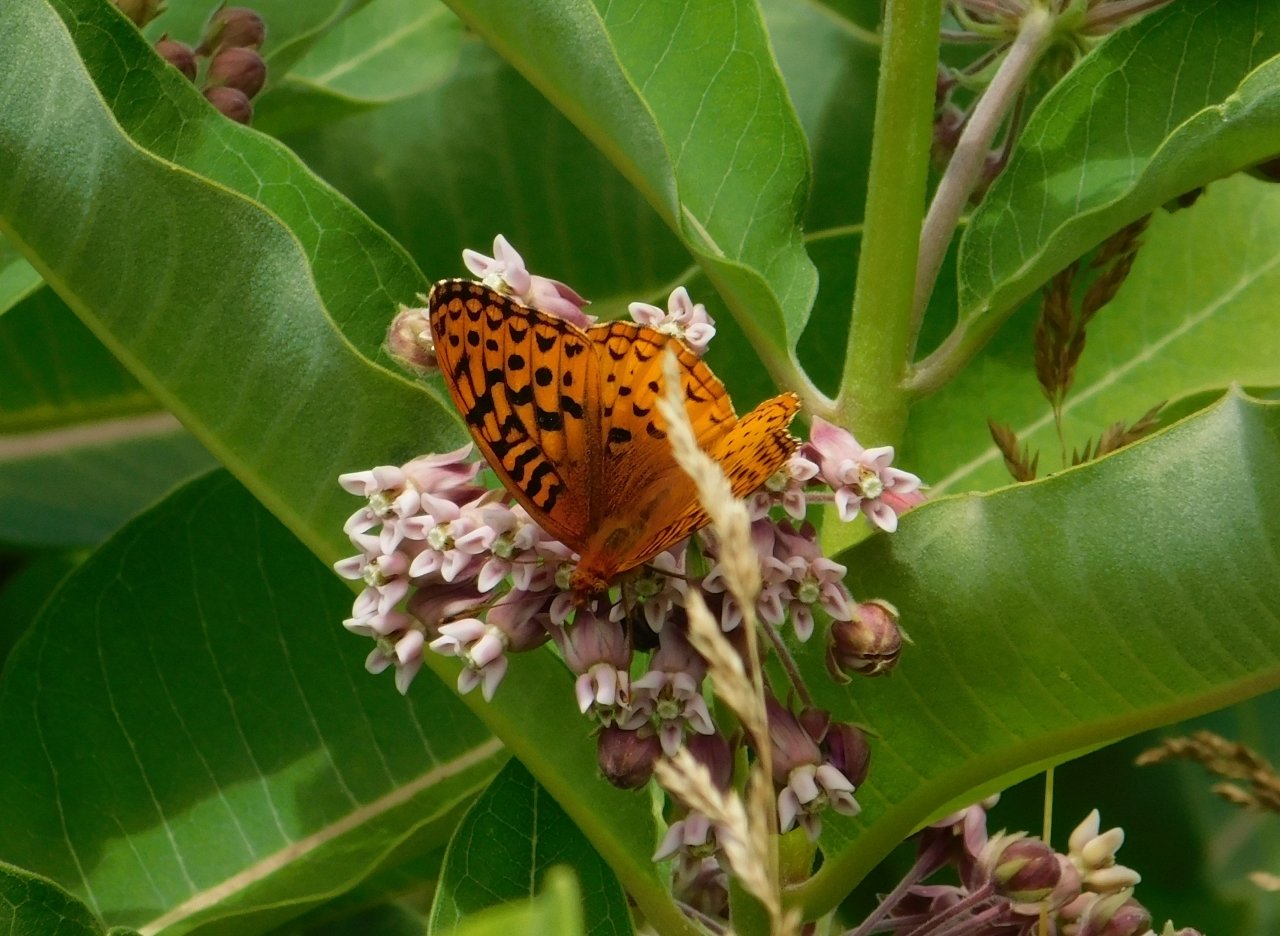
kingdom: Animalia
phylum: Arthropoda
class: Insecta
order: Lepidoptera
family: Nymphalidae
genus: Speyeria
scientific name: Speyeria cybele
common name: Great Spangled Fritillary
